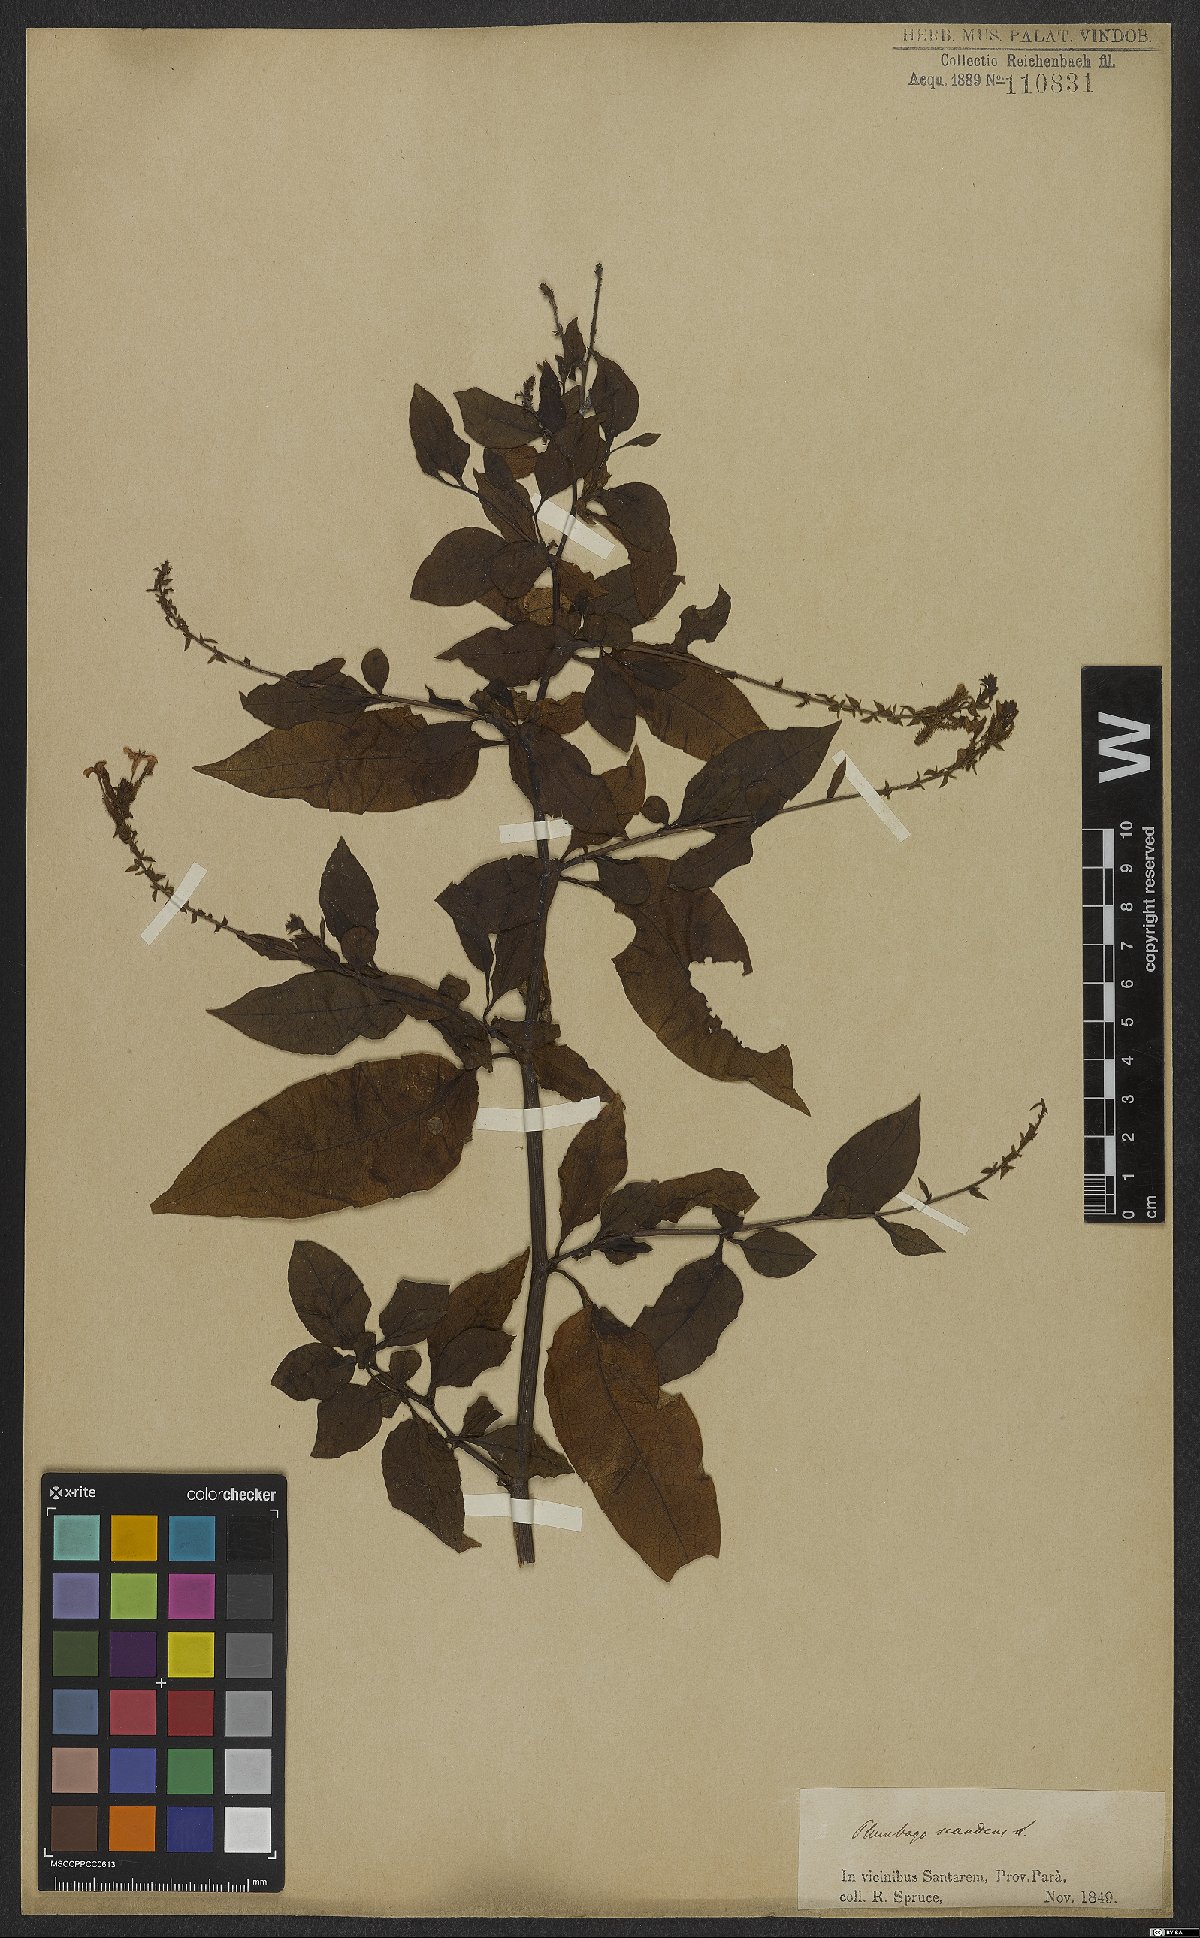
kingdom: Plantae
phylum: Tracheophyta
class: Magnoliopsida
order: Caryophyllales
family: Plumbaginaceae
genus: Plumbago
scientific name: Plumbago zeylanica
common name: Doctorbush
